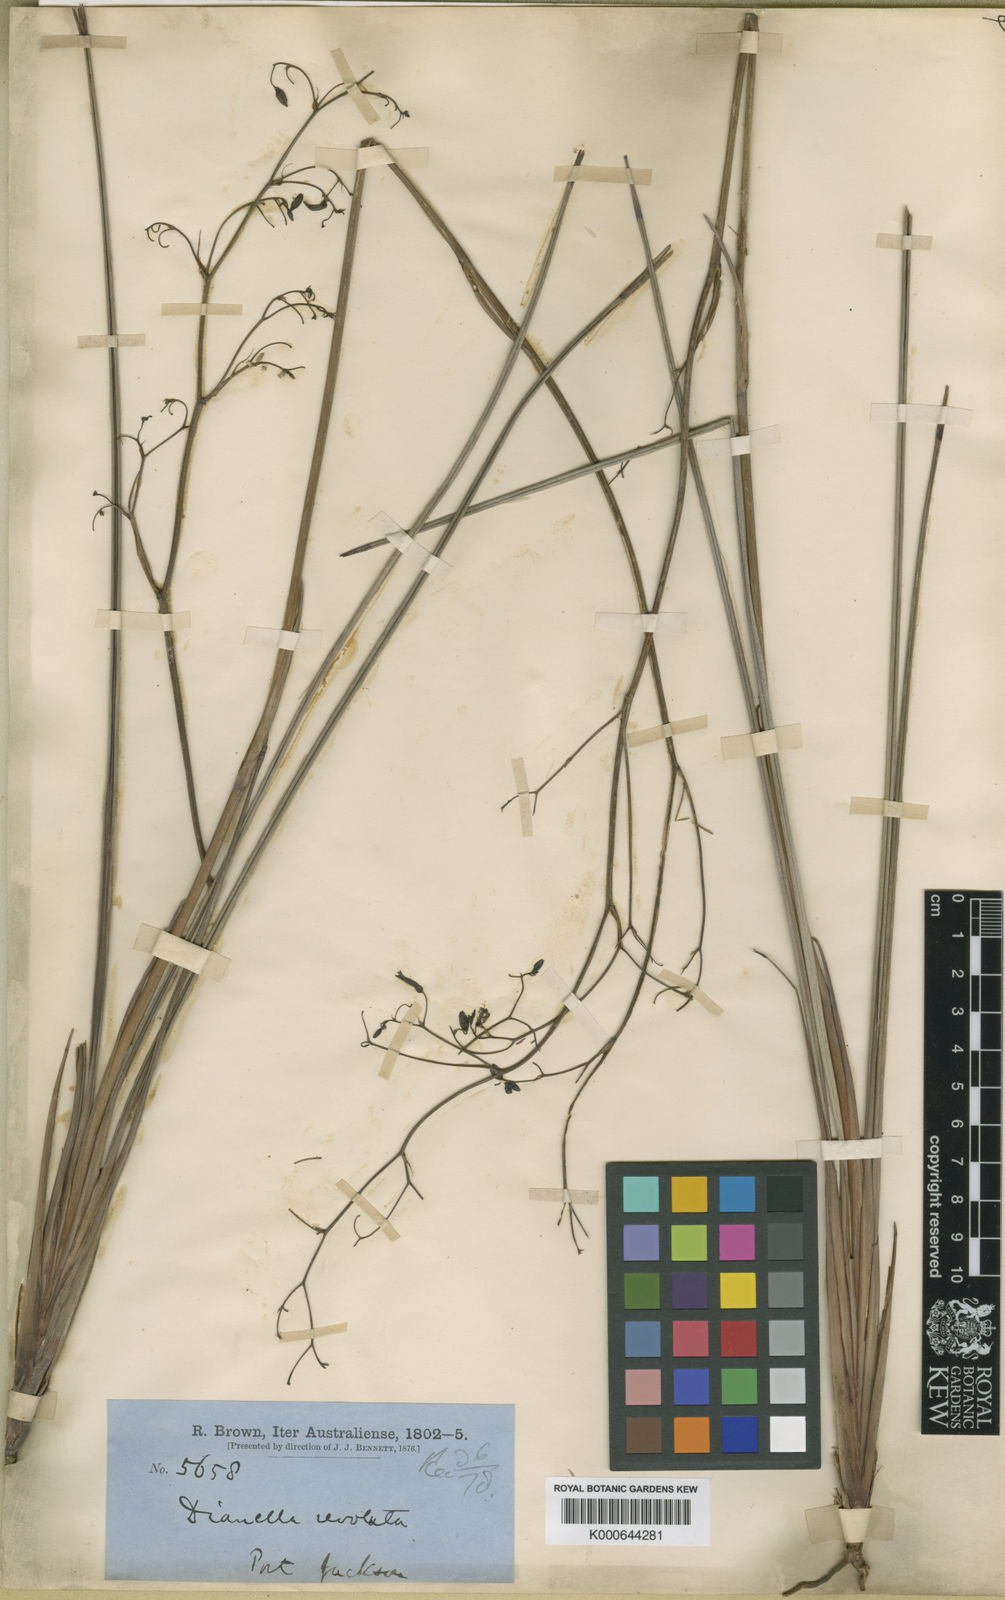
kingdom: Plantae
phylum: Tracheophyta
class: Liliopsida
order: Asparagales
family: Asphodelaceae
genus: Dianella
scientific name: Dianella revoluta
